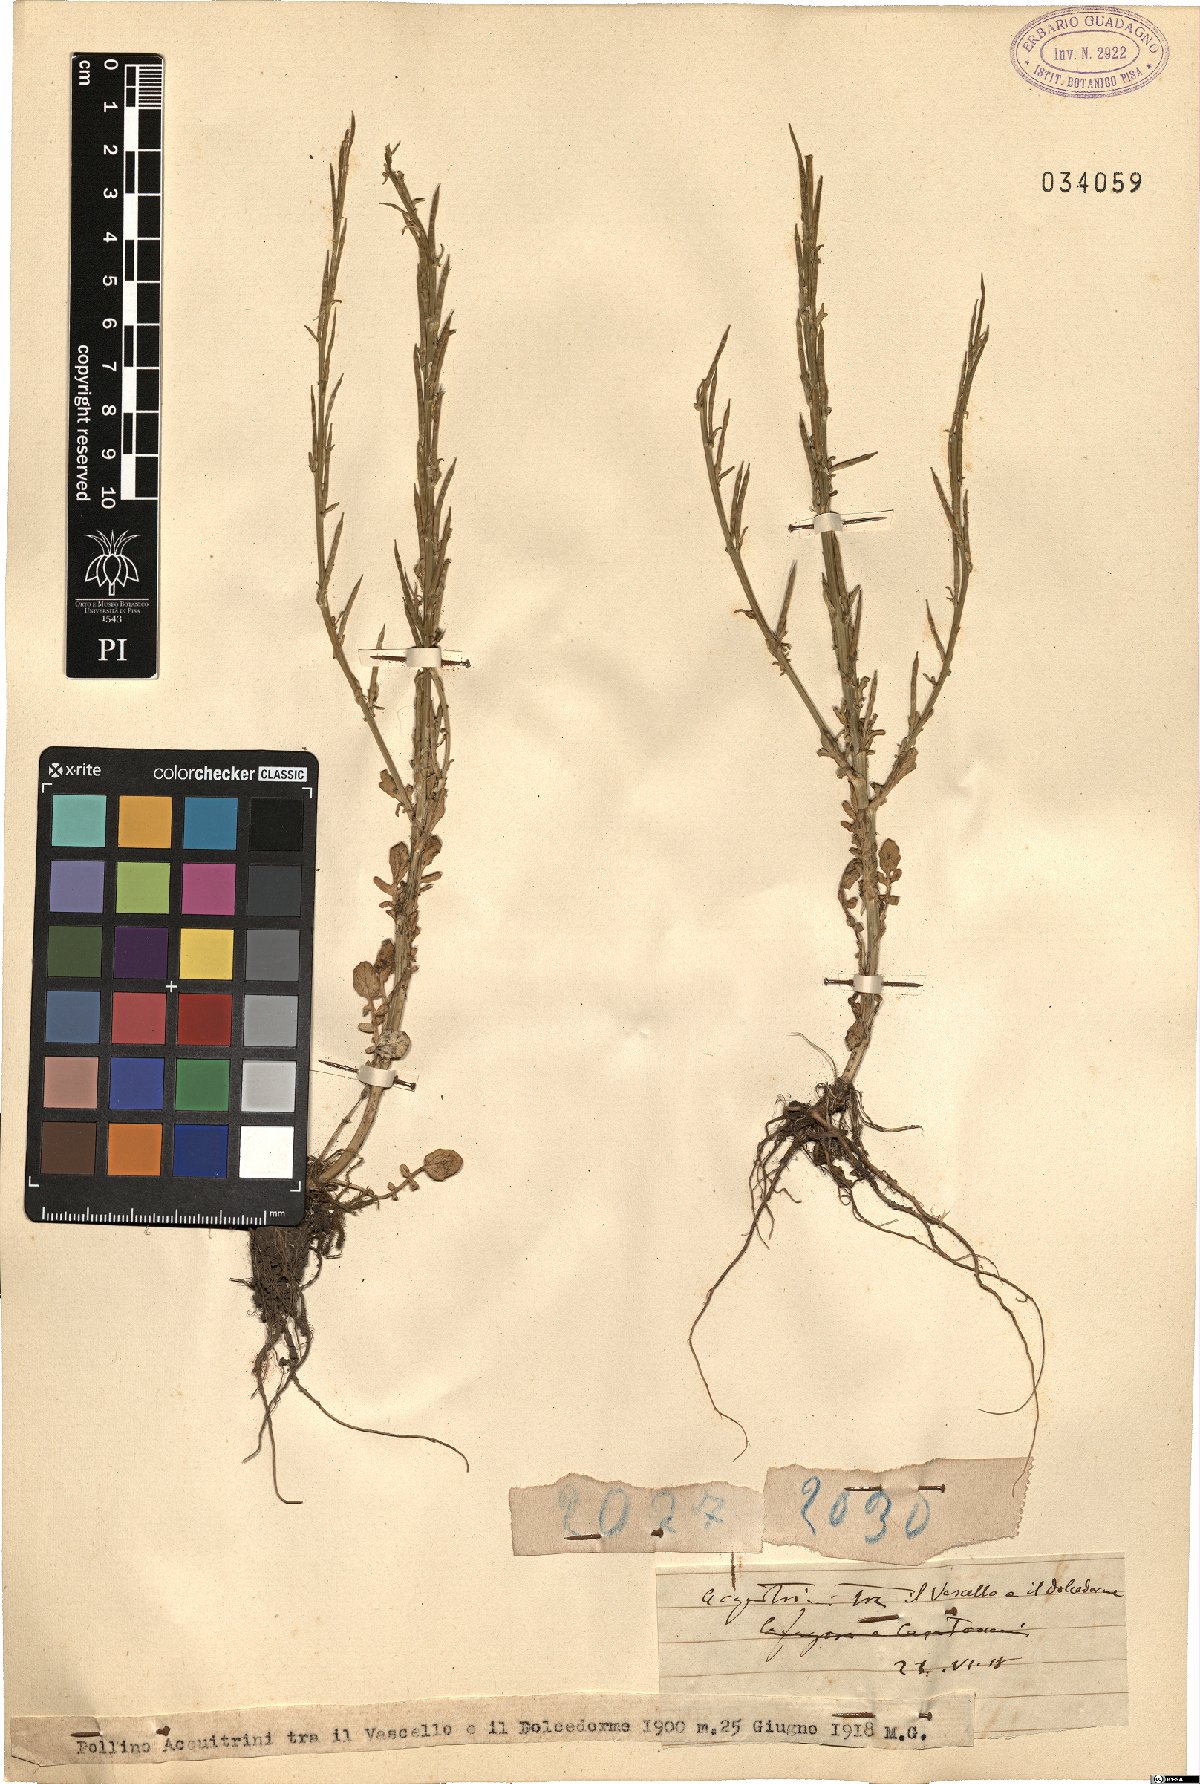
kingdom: Plantae
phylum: Tracheophyta
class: Magnoliopsida
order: Brassicales
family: Brassicaceae
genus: Barbarea
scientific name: Barbarea
